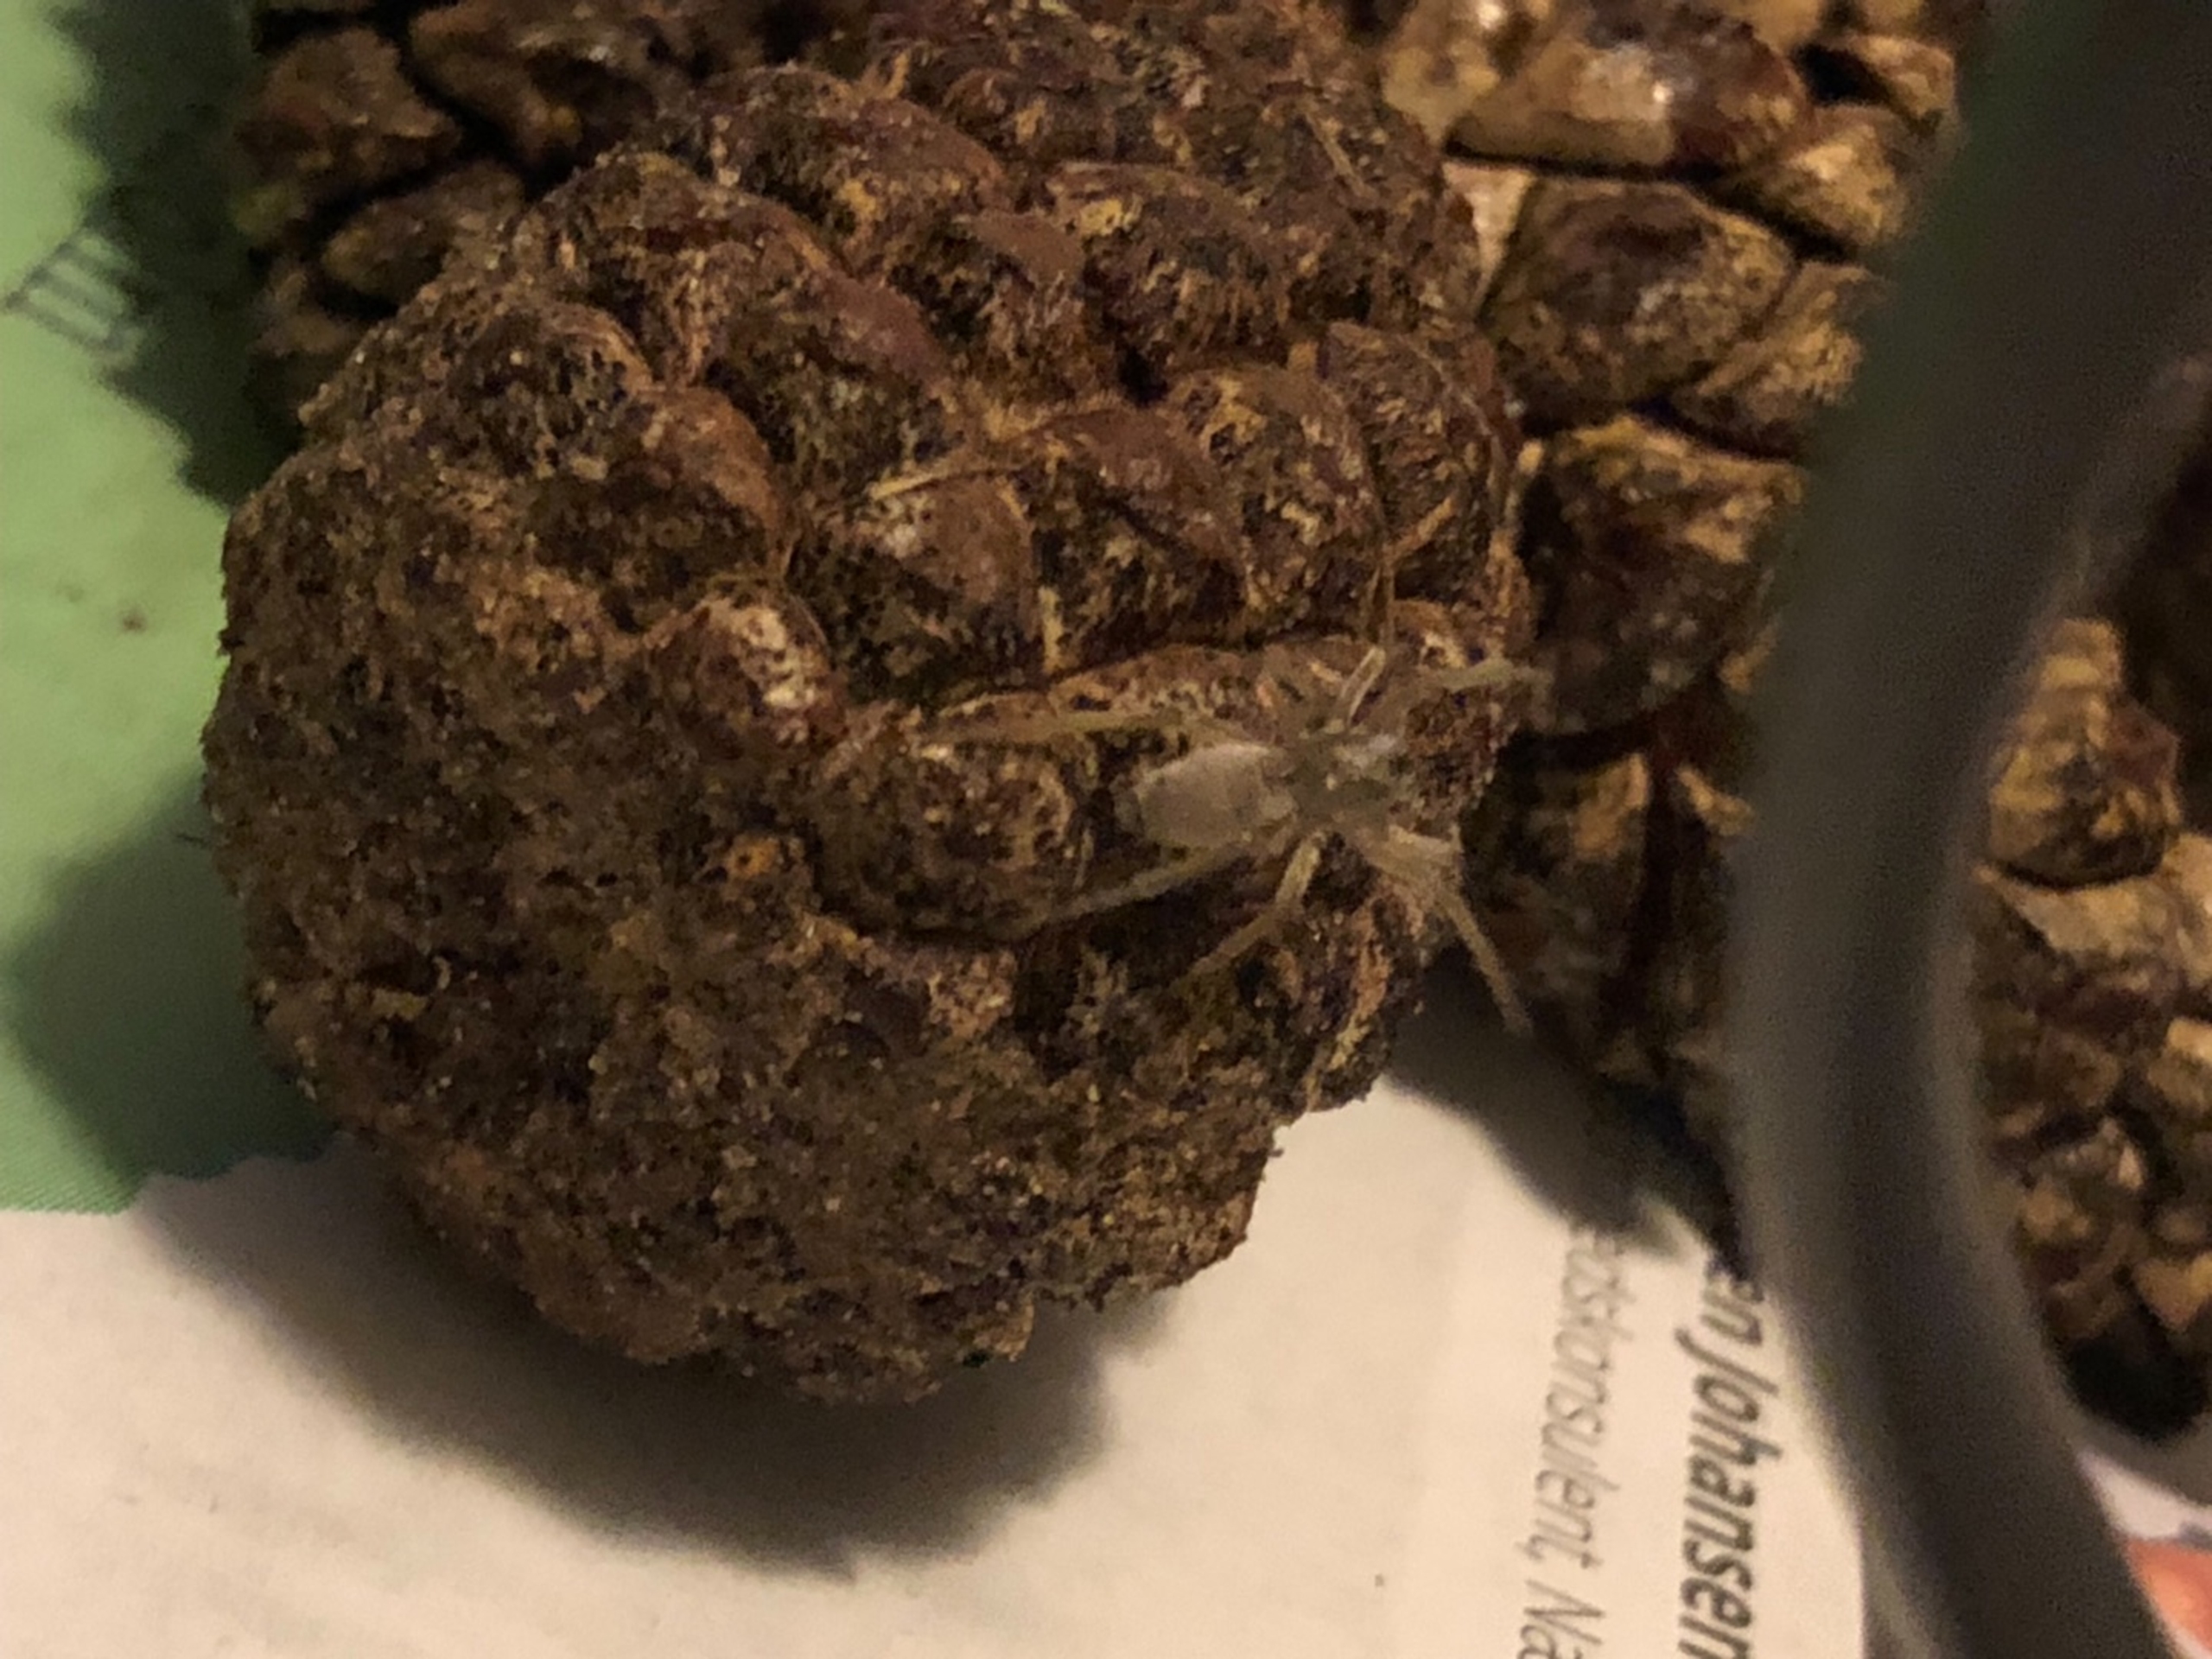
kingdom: Animalia
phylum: Arthropoda
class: Arachnida
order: Araneae
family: Clubionidae
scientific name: Clubionidae
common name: Sækspindere
